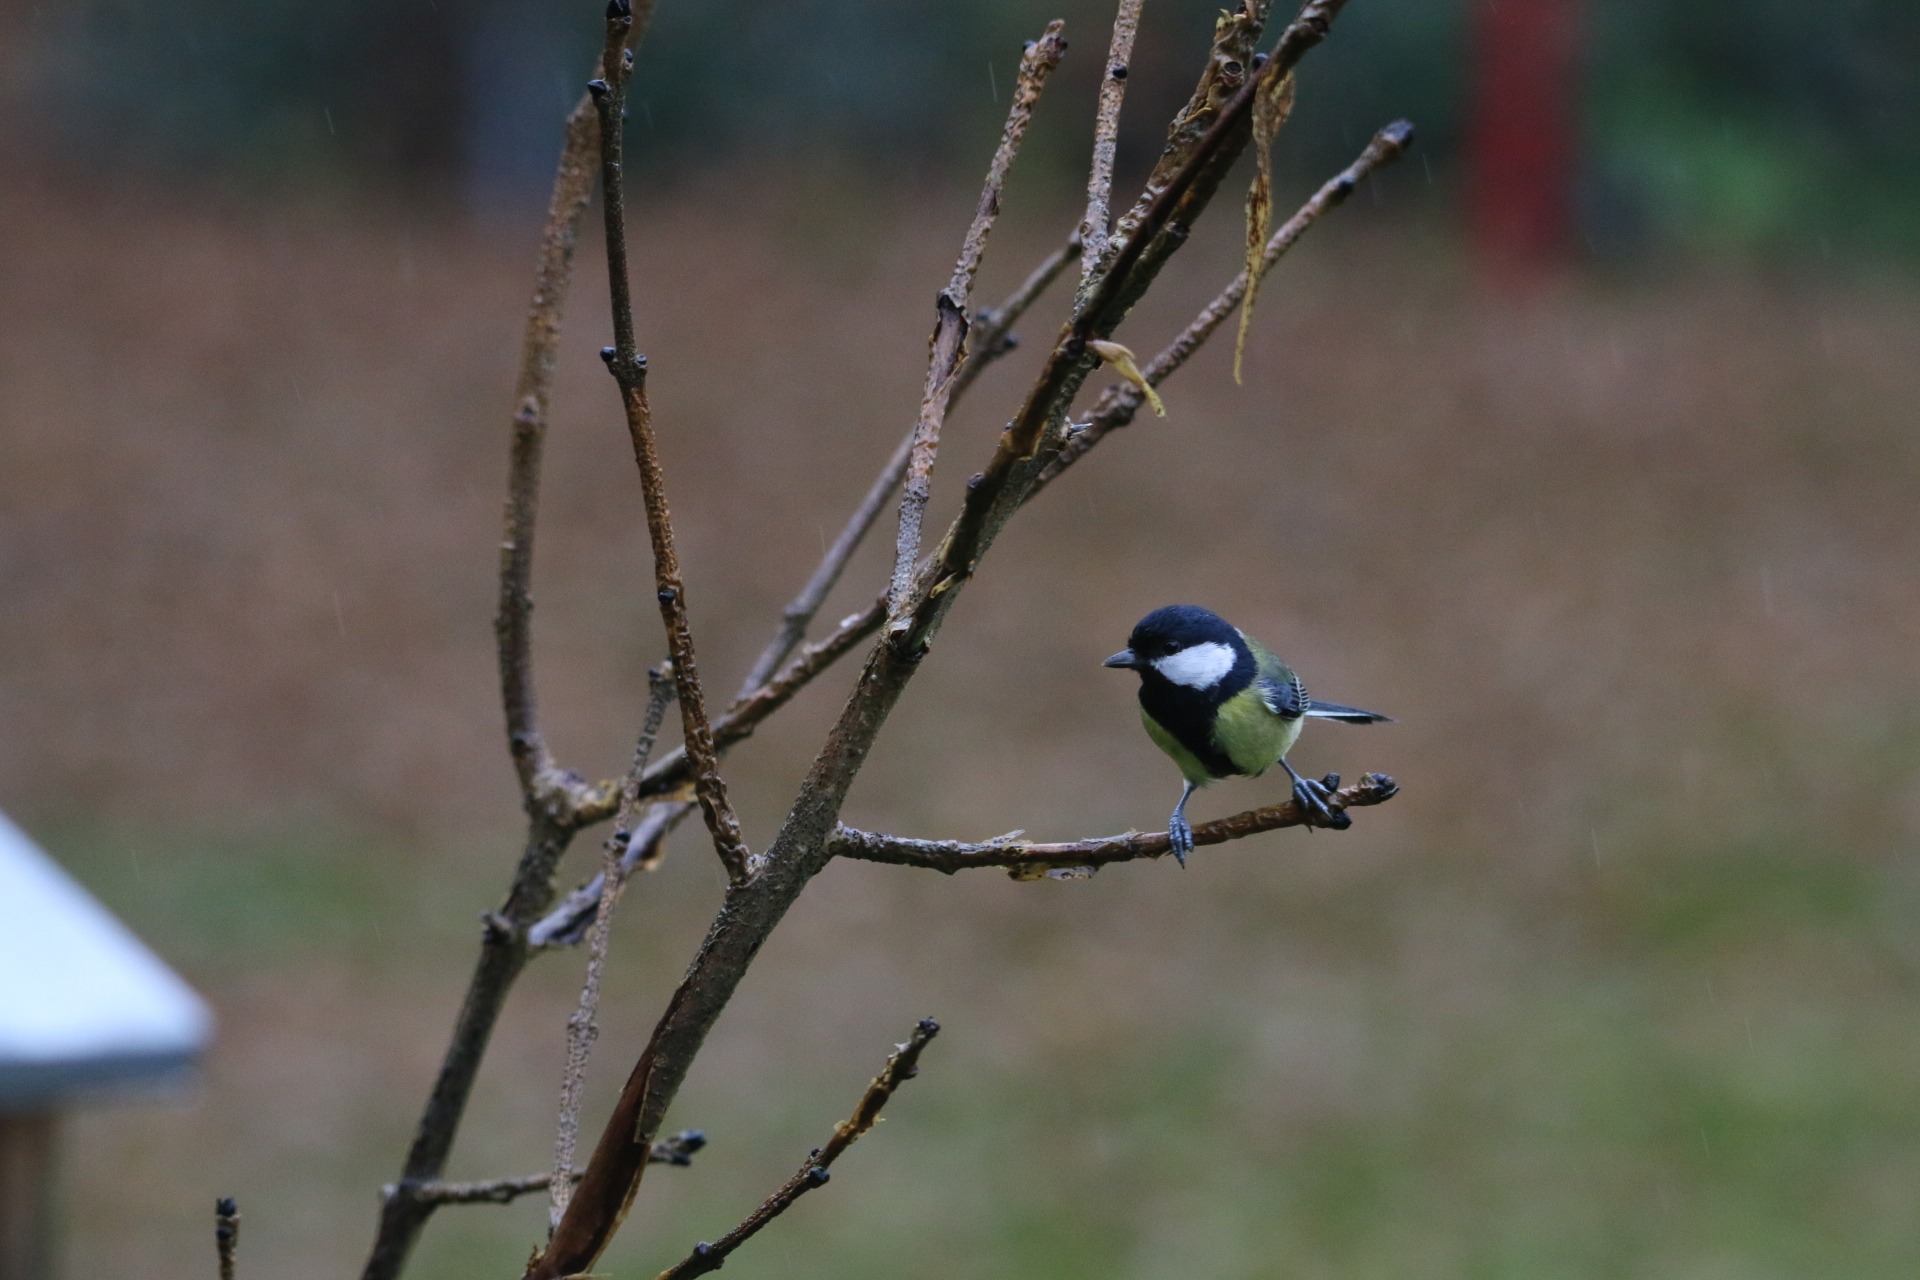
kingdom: Animalia
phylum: Chordata
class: Aves
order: Passeriformes
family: Paridae
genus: Parus
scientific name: Parus major
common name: Musvit
